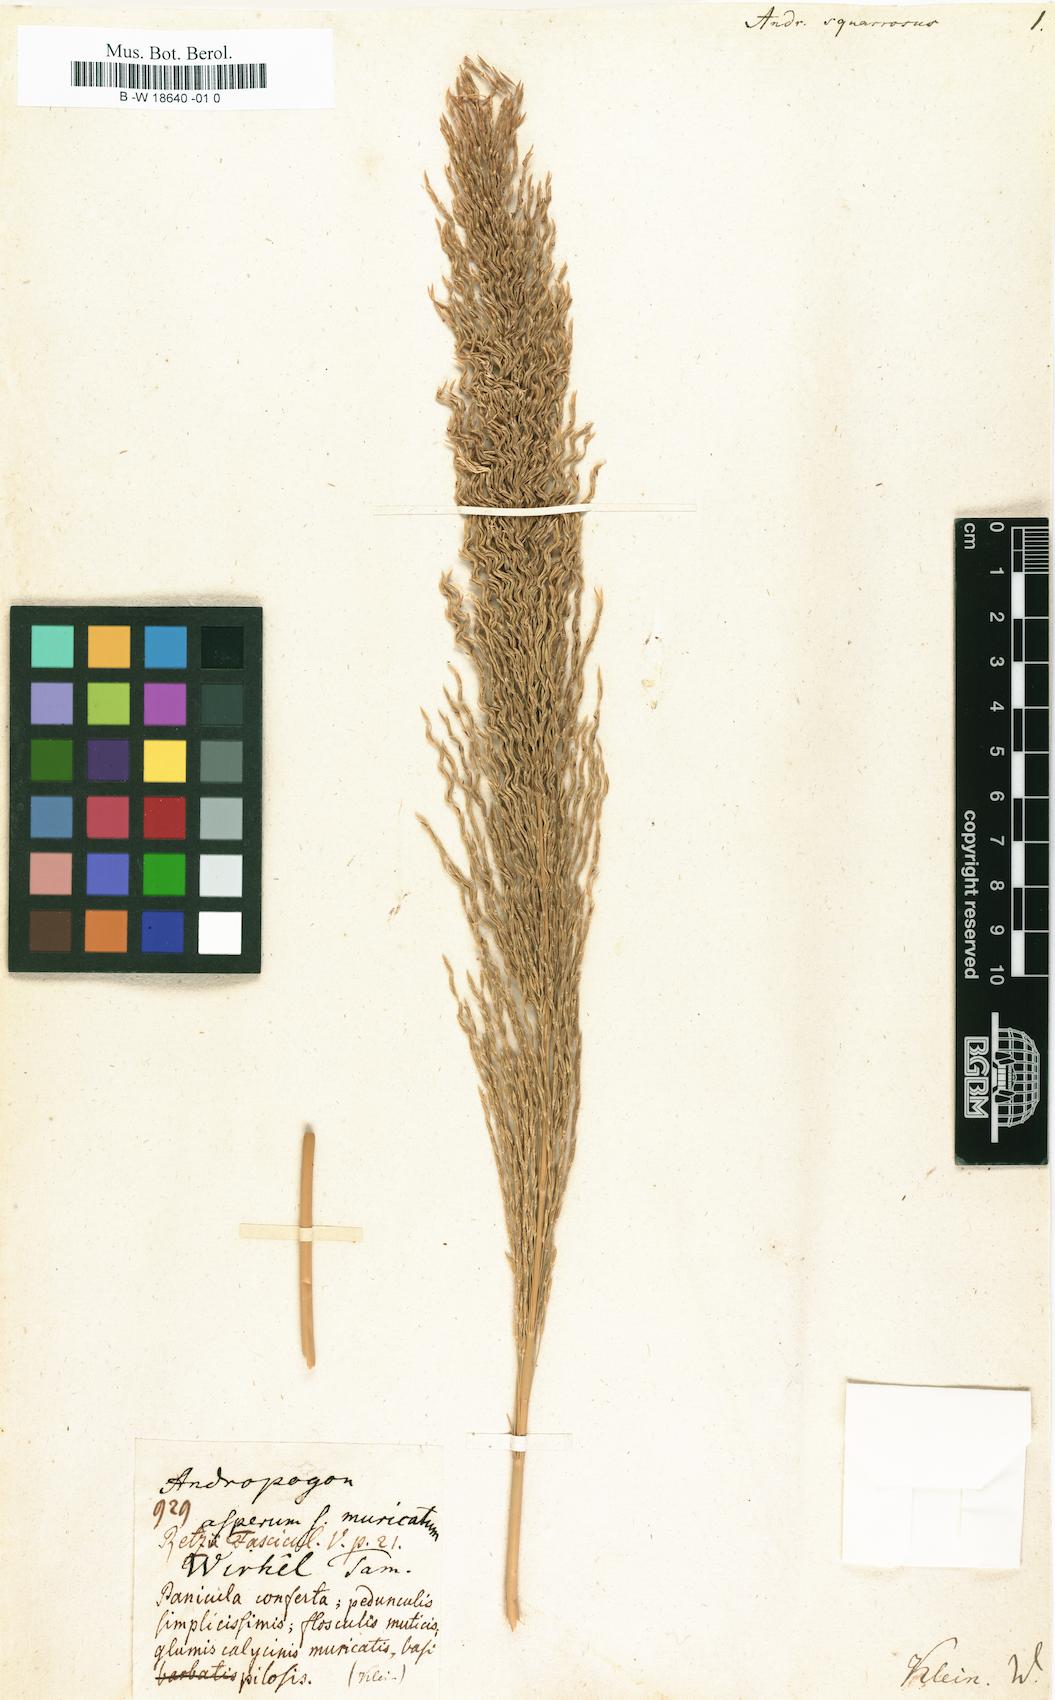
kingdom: Plantae
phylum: Tracheophyta
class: Liliopsida
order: Poales
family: Poaceae
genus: Pseudoraphis
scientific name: Pseudoraphis spinescens
